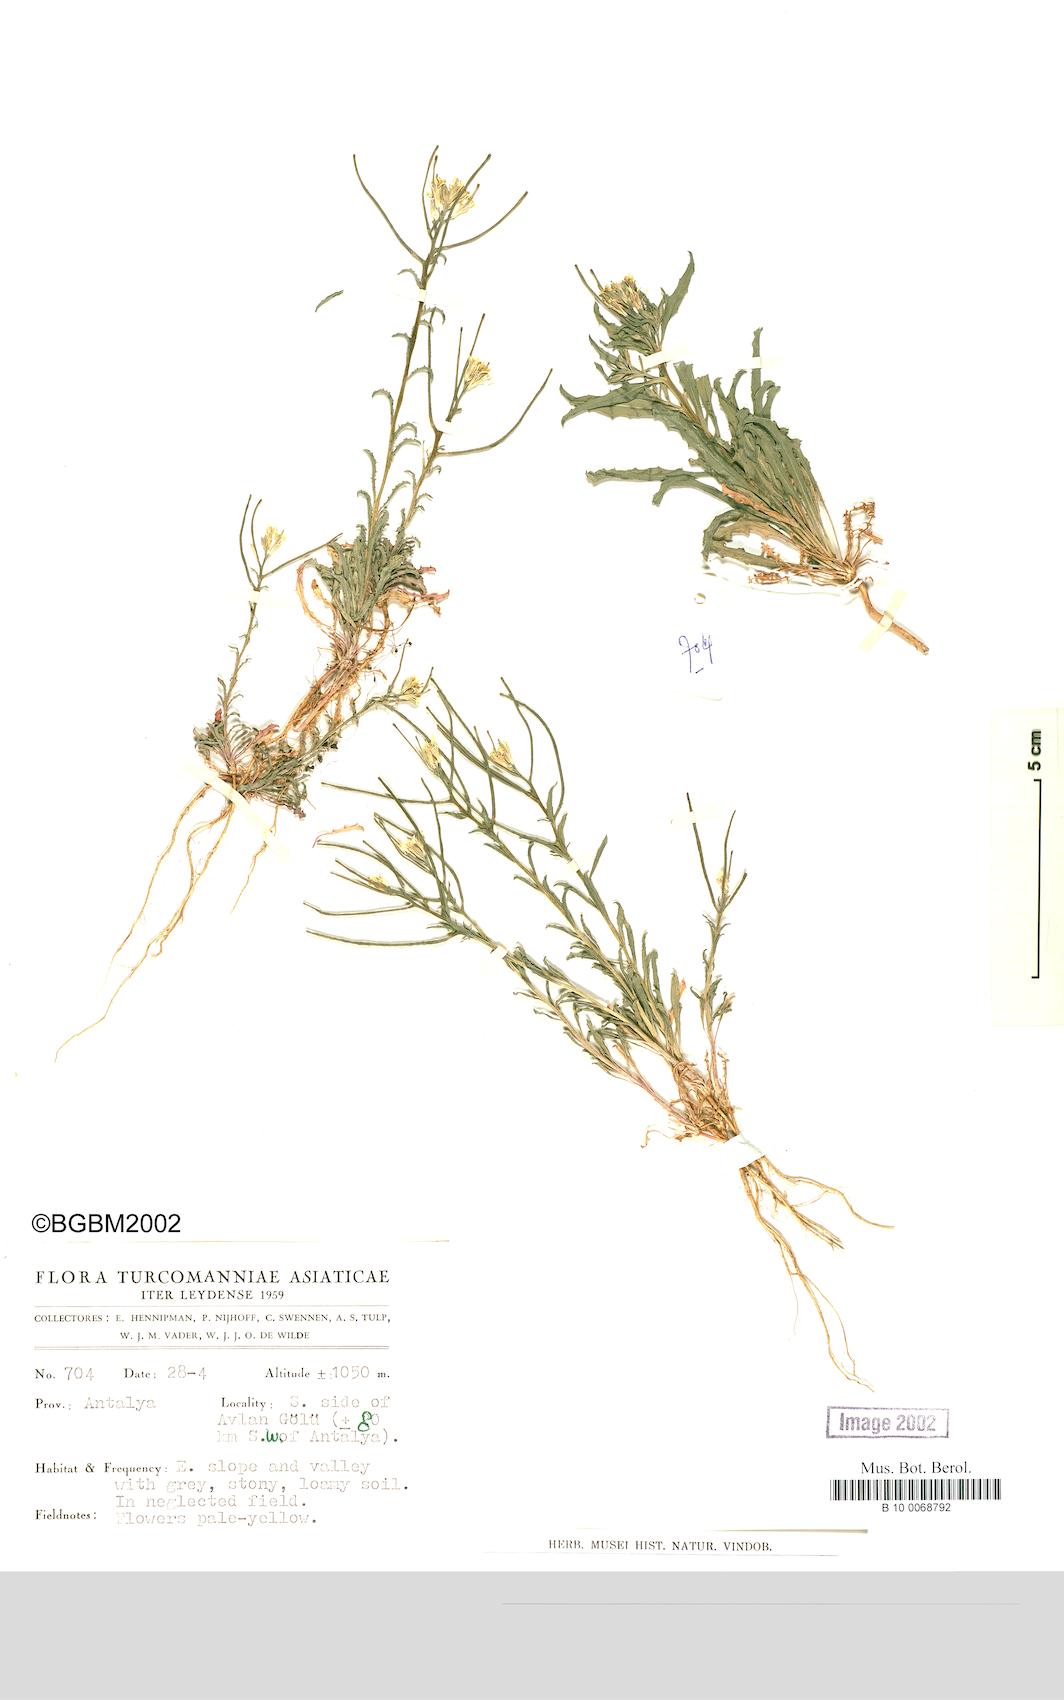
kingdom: Plantae
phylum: Tracheophyta
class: Magnoliopsida
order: Brassicales
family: Brassicaceae
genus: Erysimum
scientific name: Erysimum repandum
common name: Spreading wallflower
